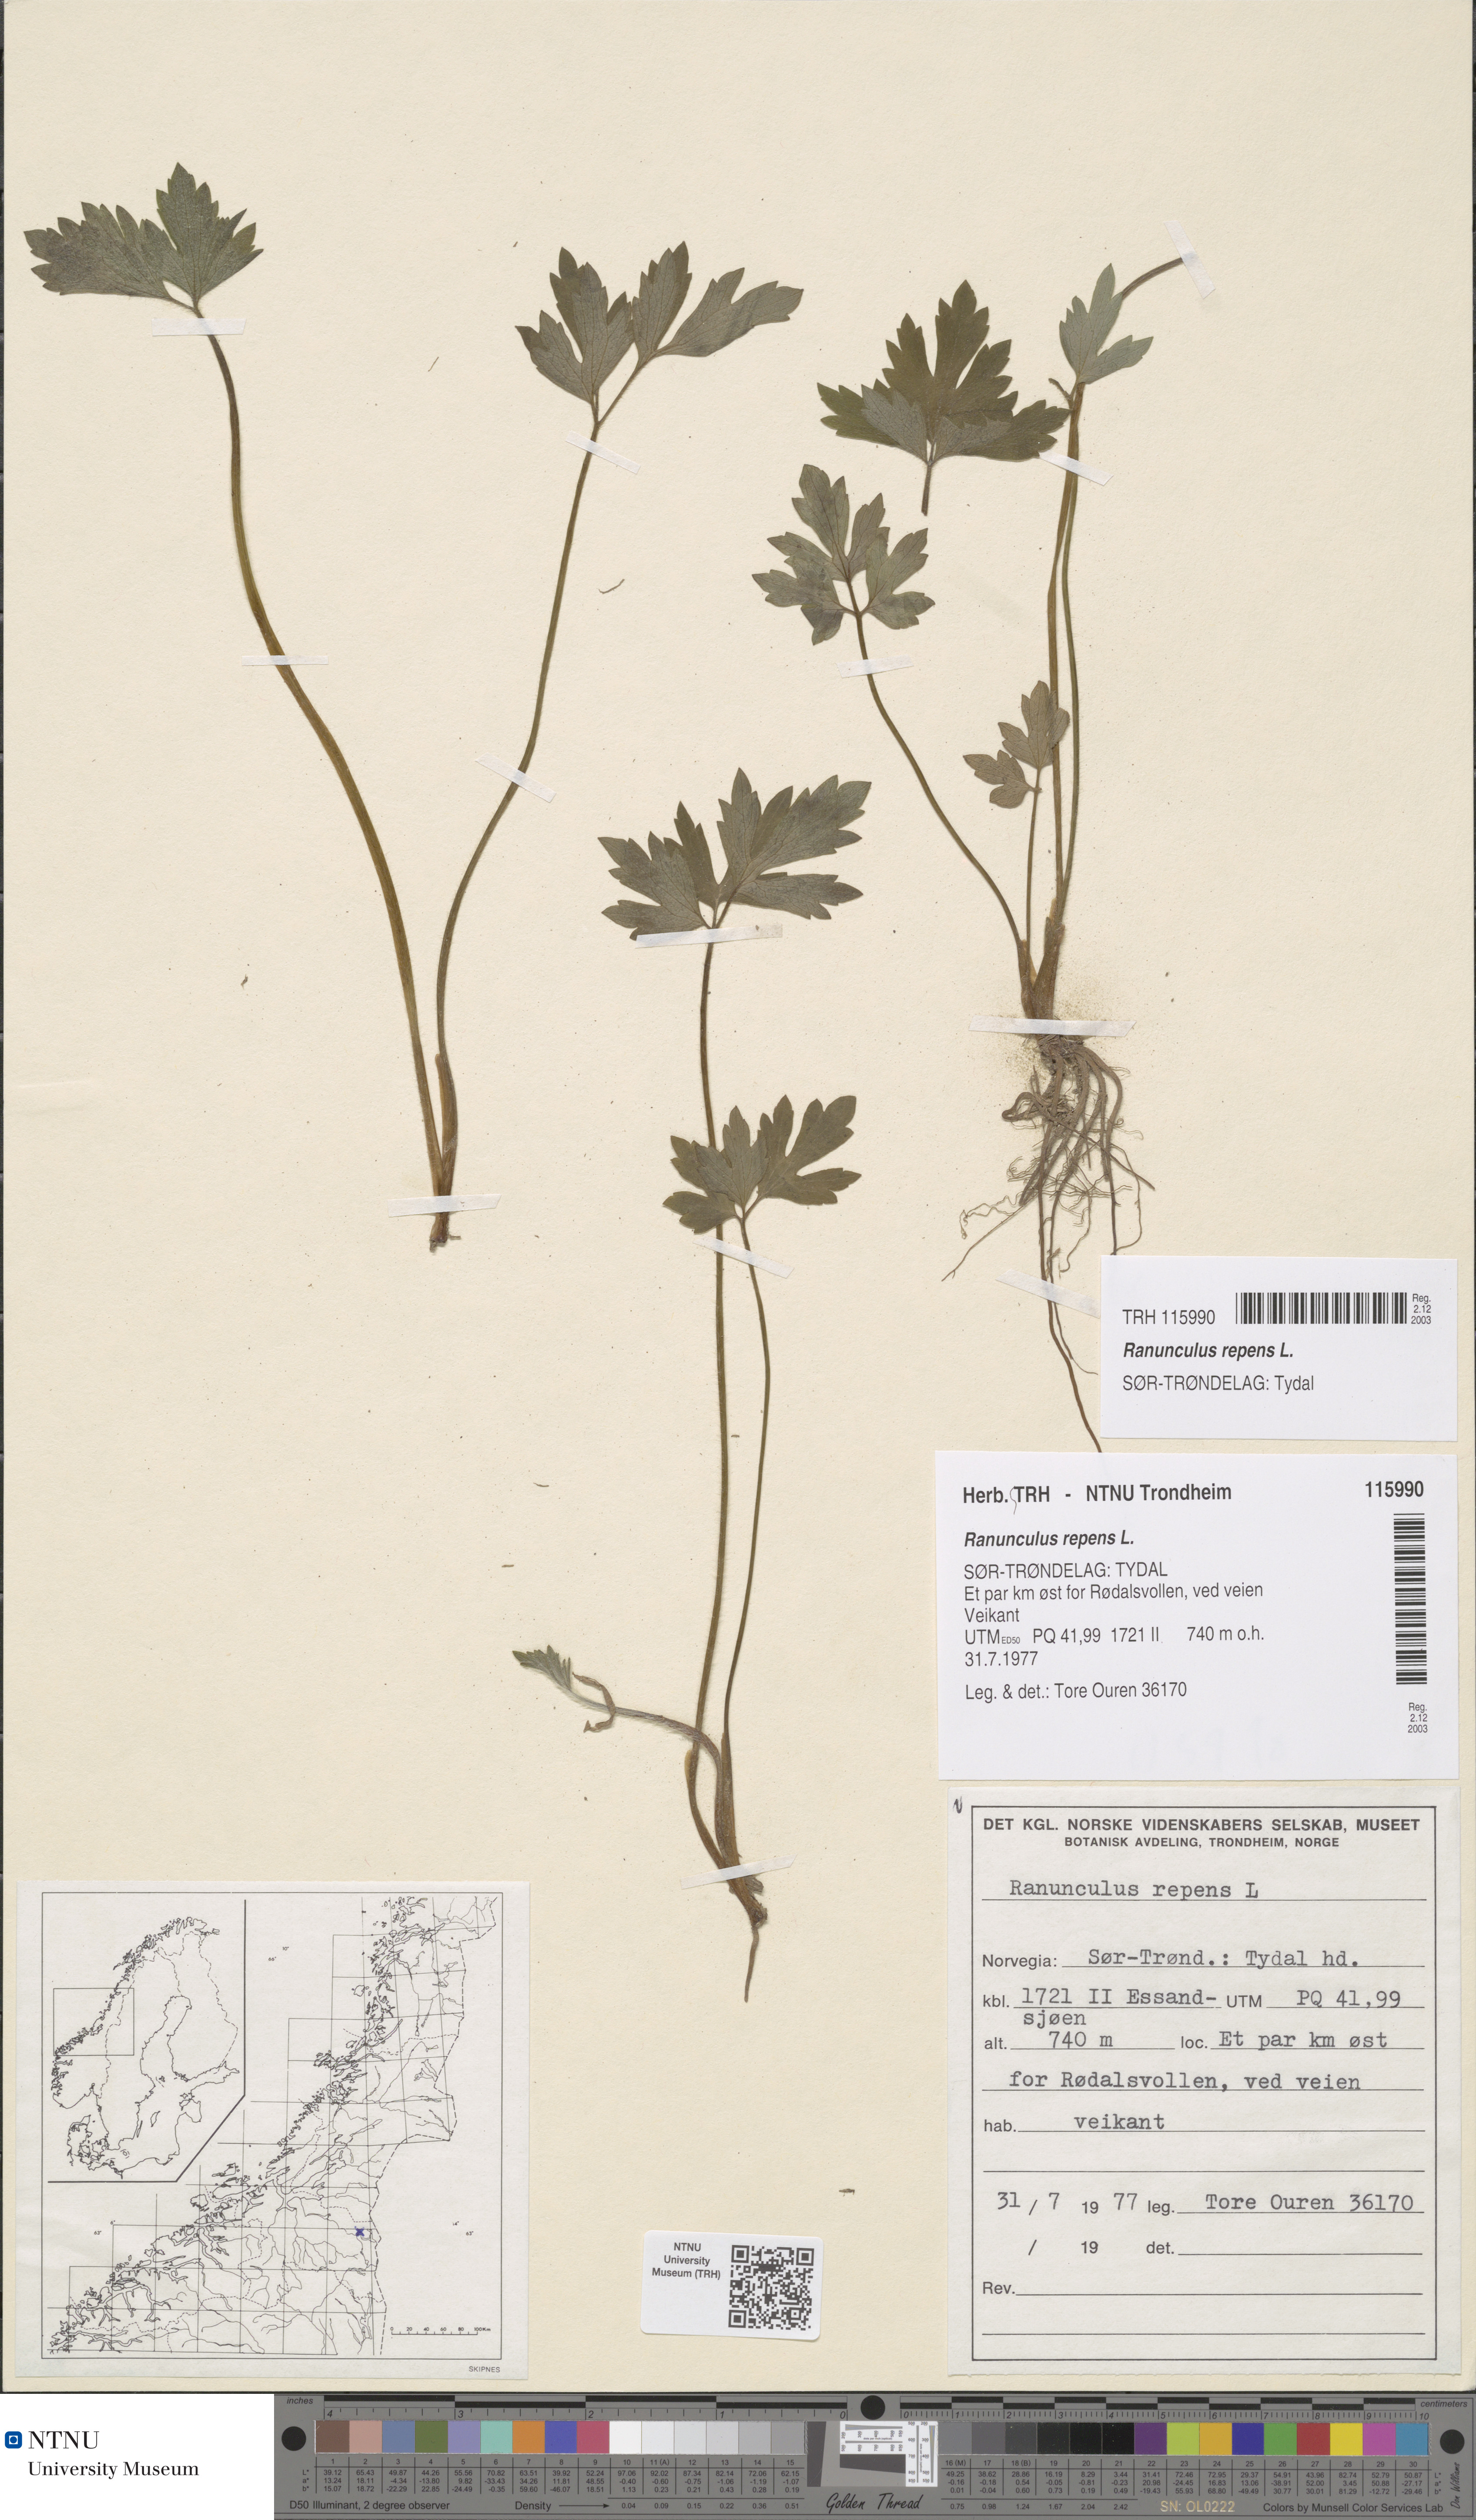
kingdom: Plantae
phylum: Tracheophyta
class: Magnoliopsida
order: Ranunculales
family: Ranunculaceae
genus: Ranunculus
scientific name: Ranunculus repens
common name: Creeping buttercup
